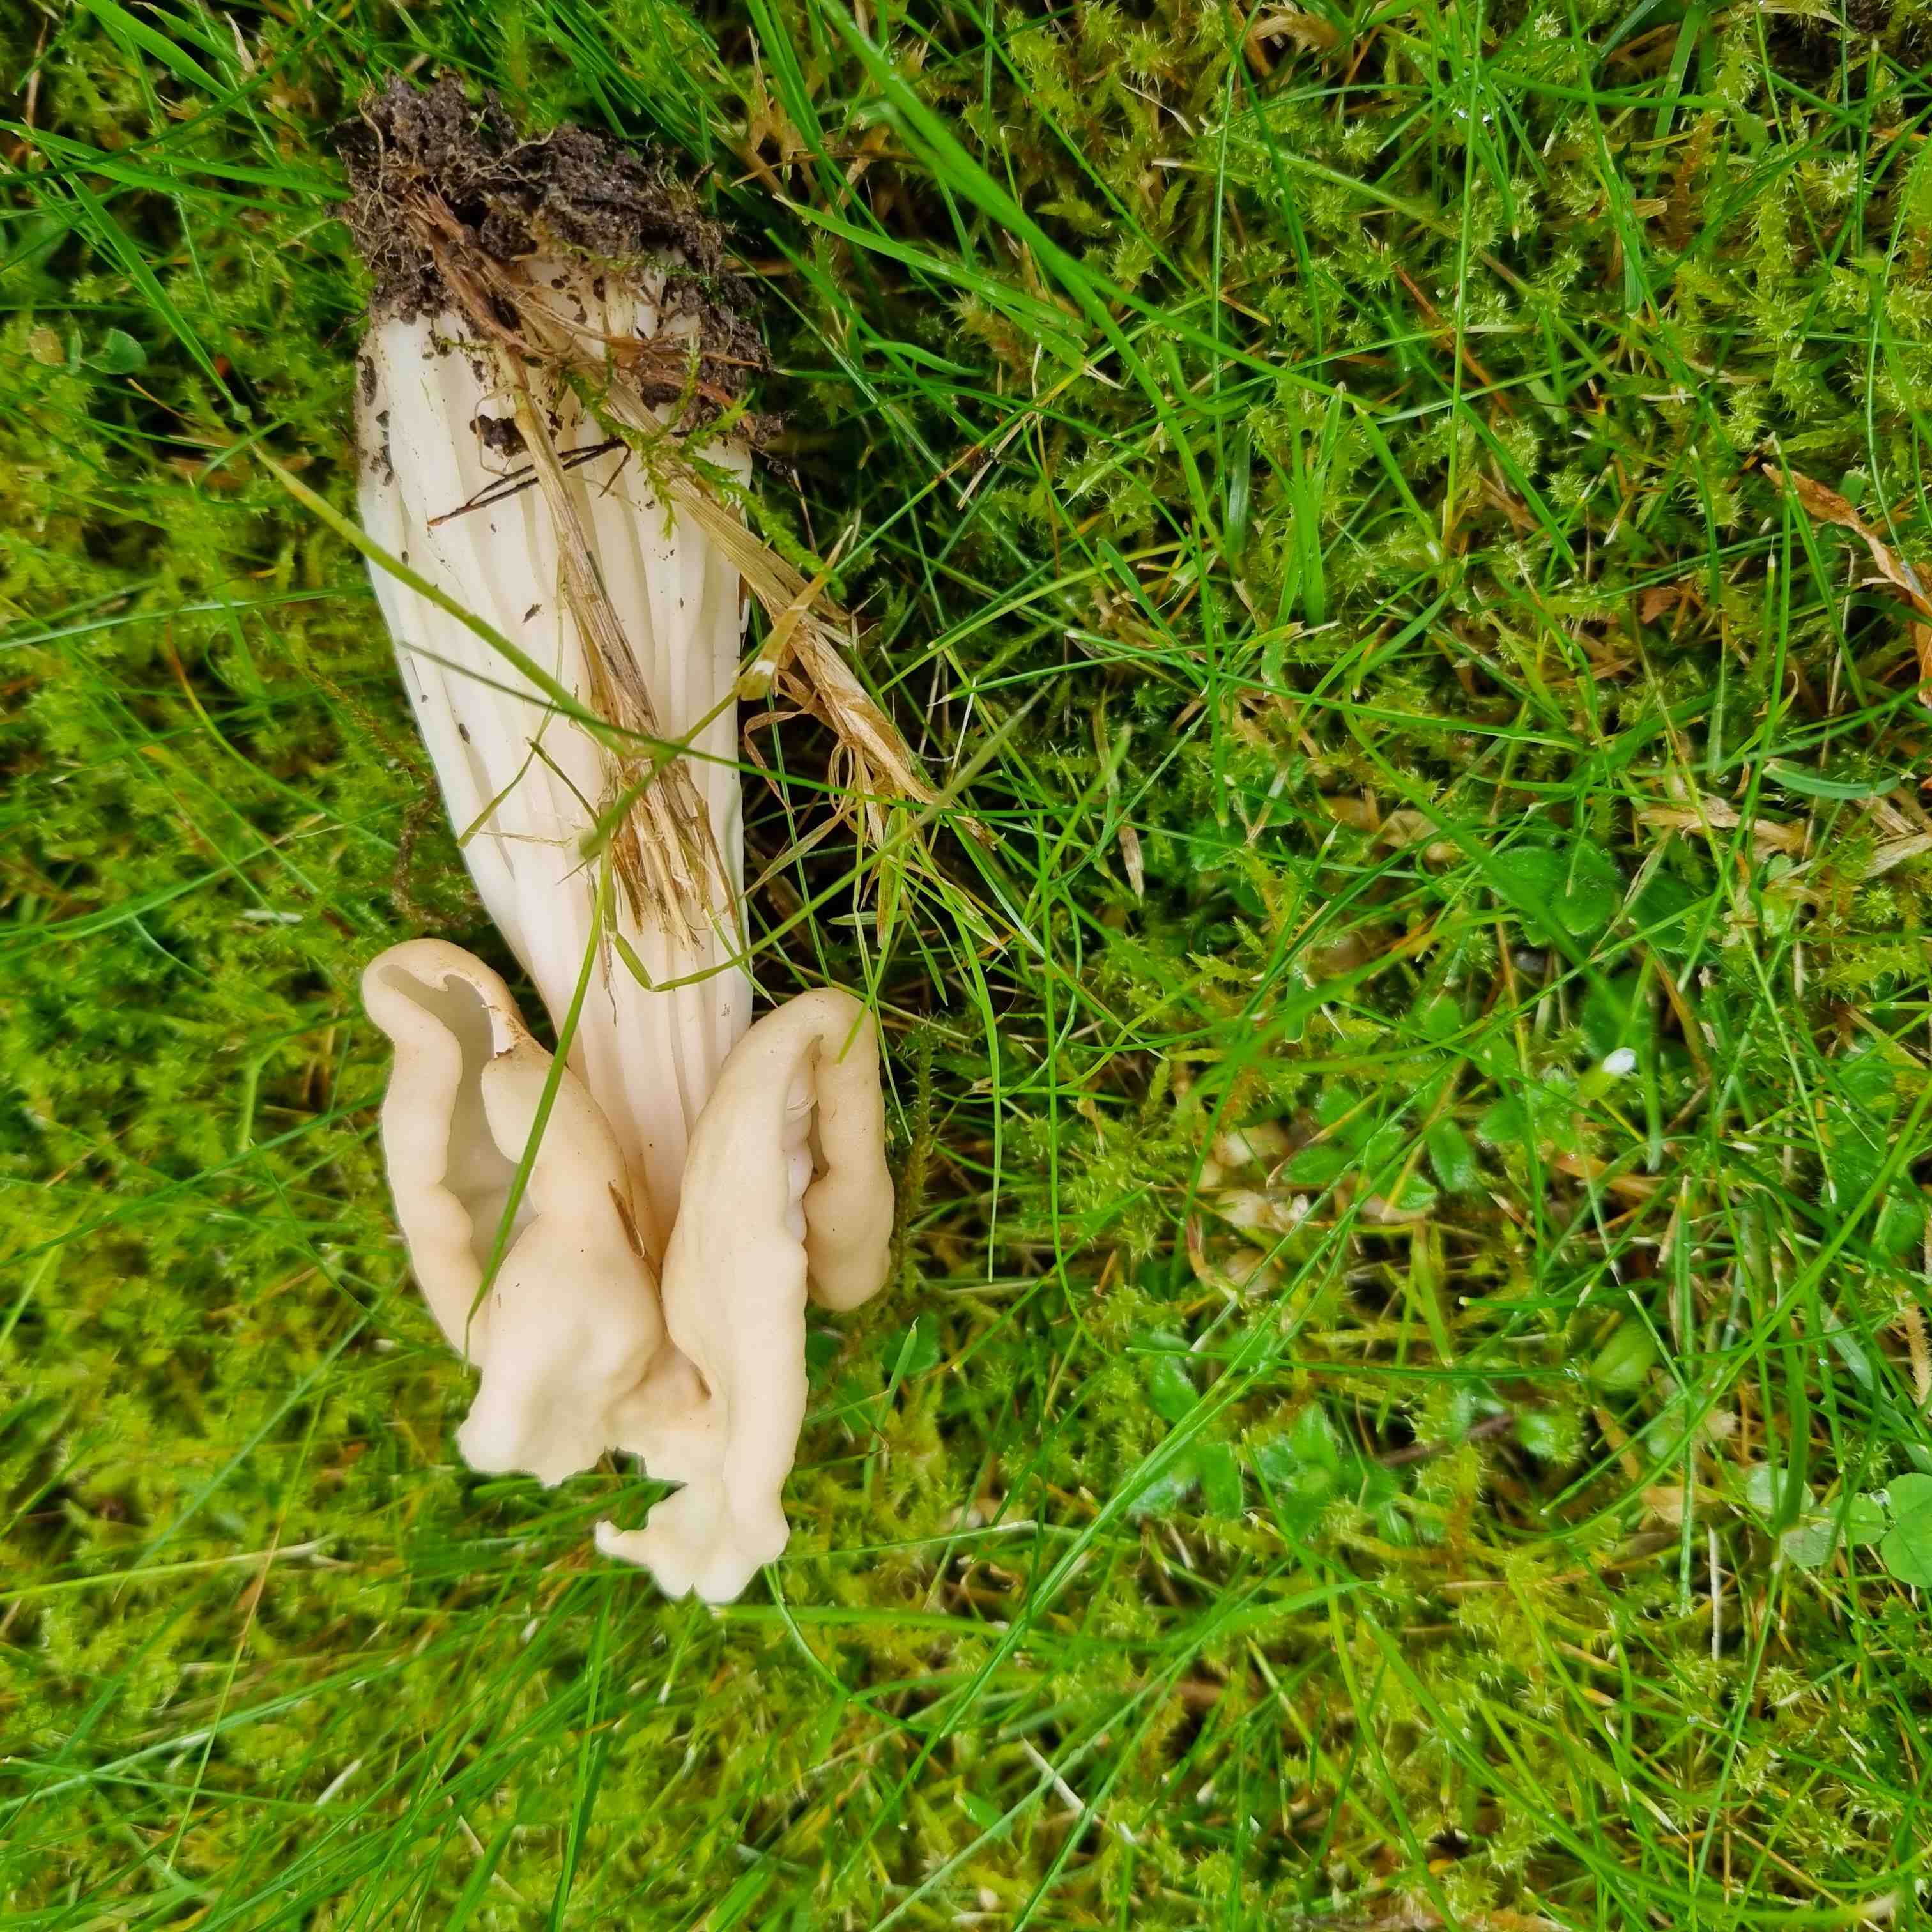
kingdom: Fungi
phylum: Ascomycota
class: Pezizomycetes
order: Pezizales
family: Helvellaceae
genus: Helvella
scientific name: Helvella crispa
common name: kruset foldhat
